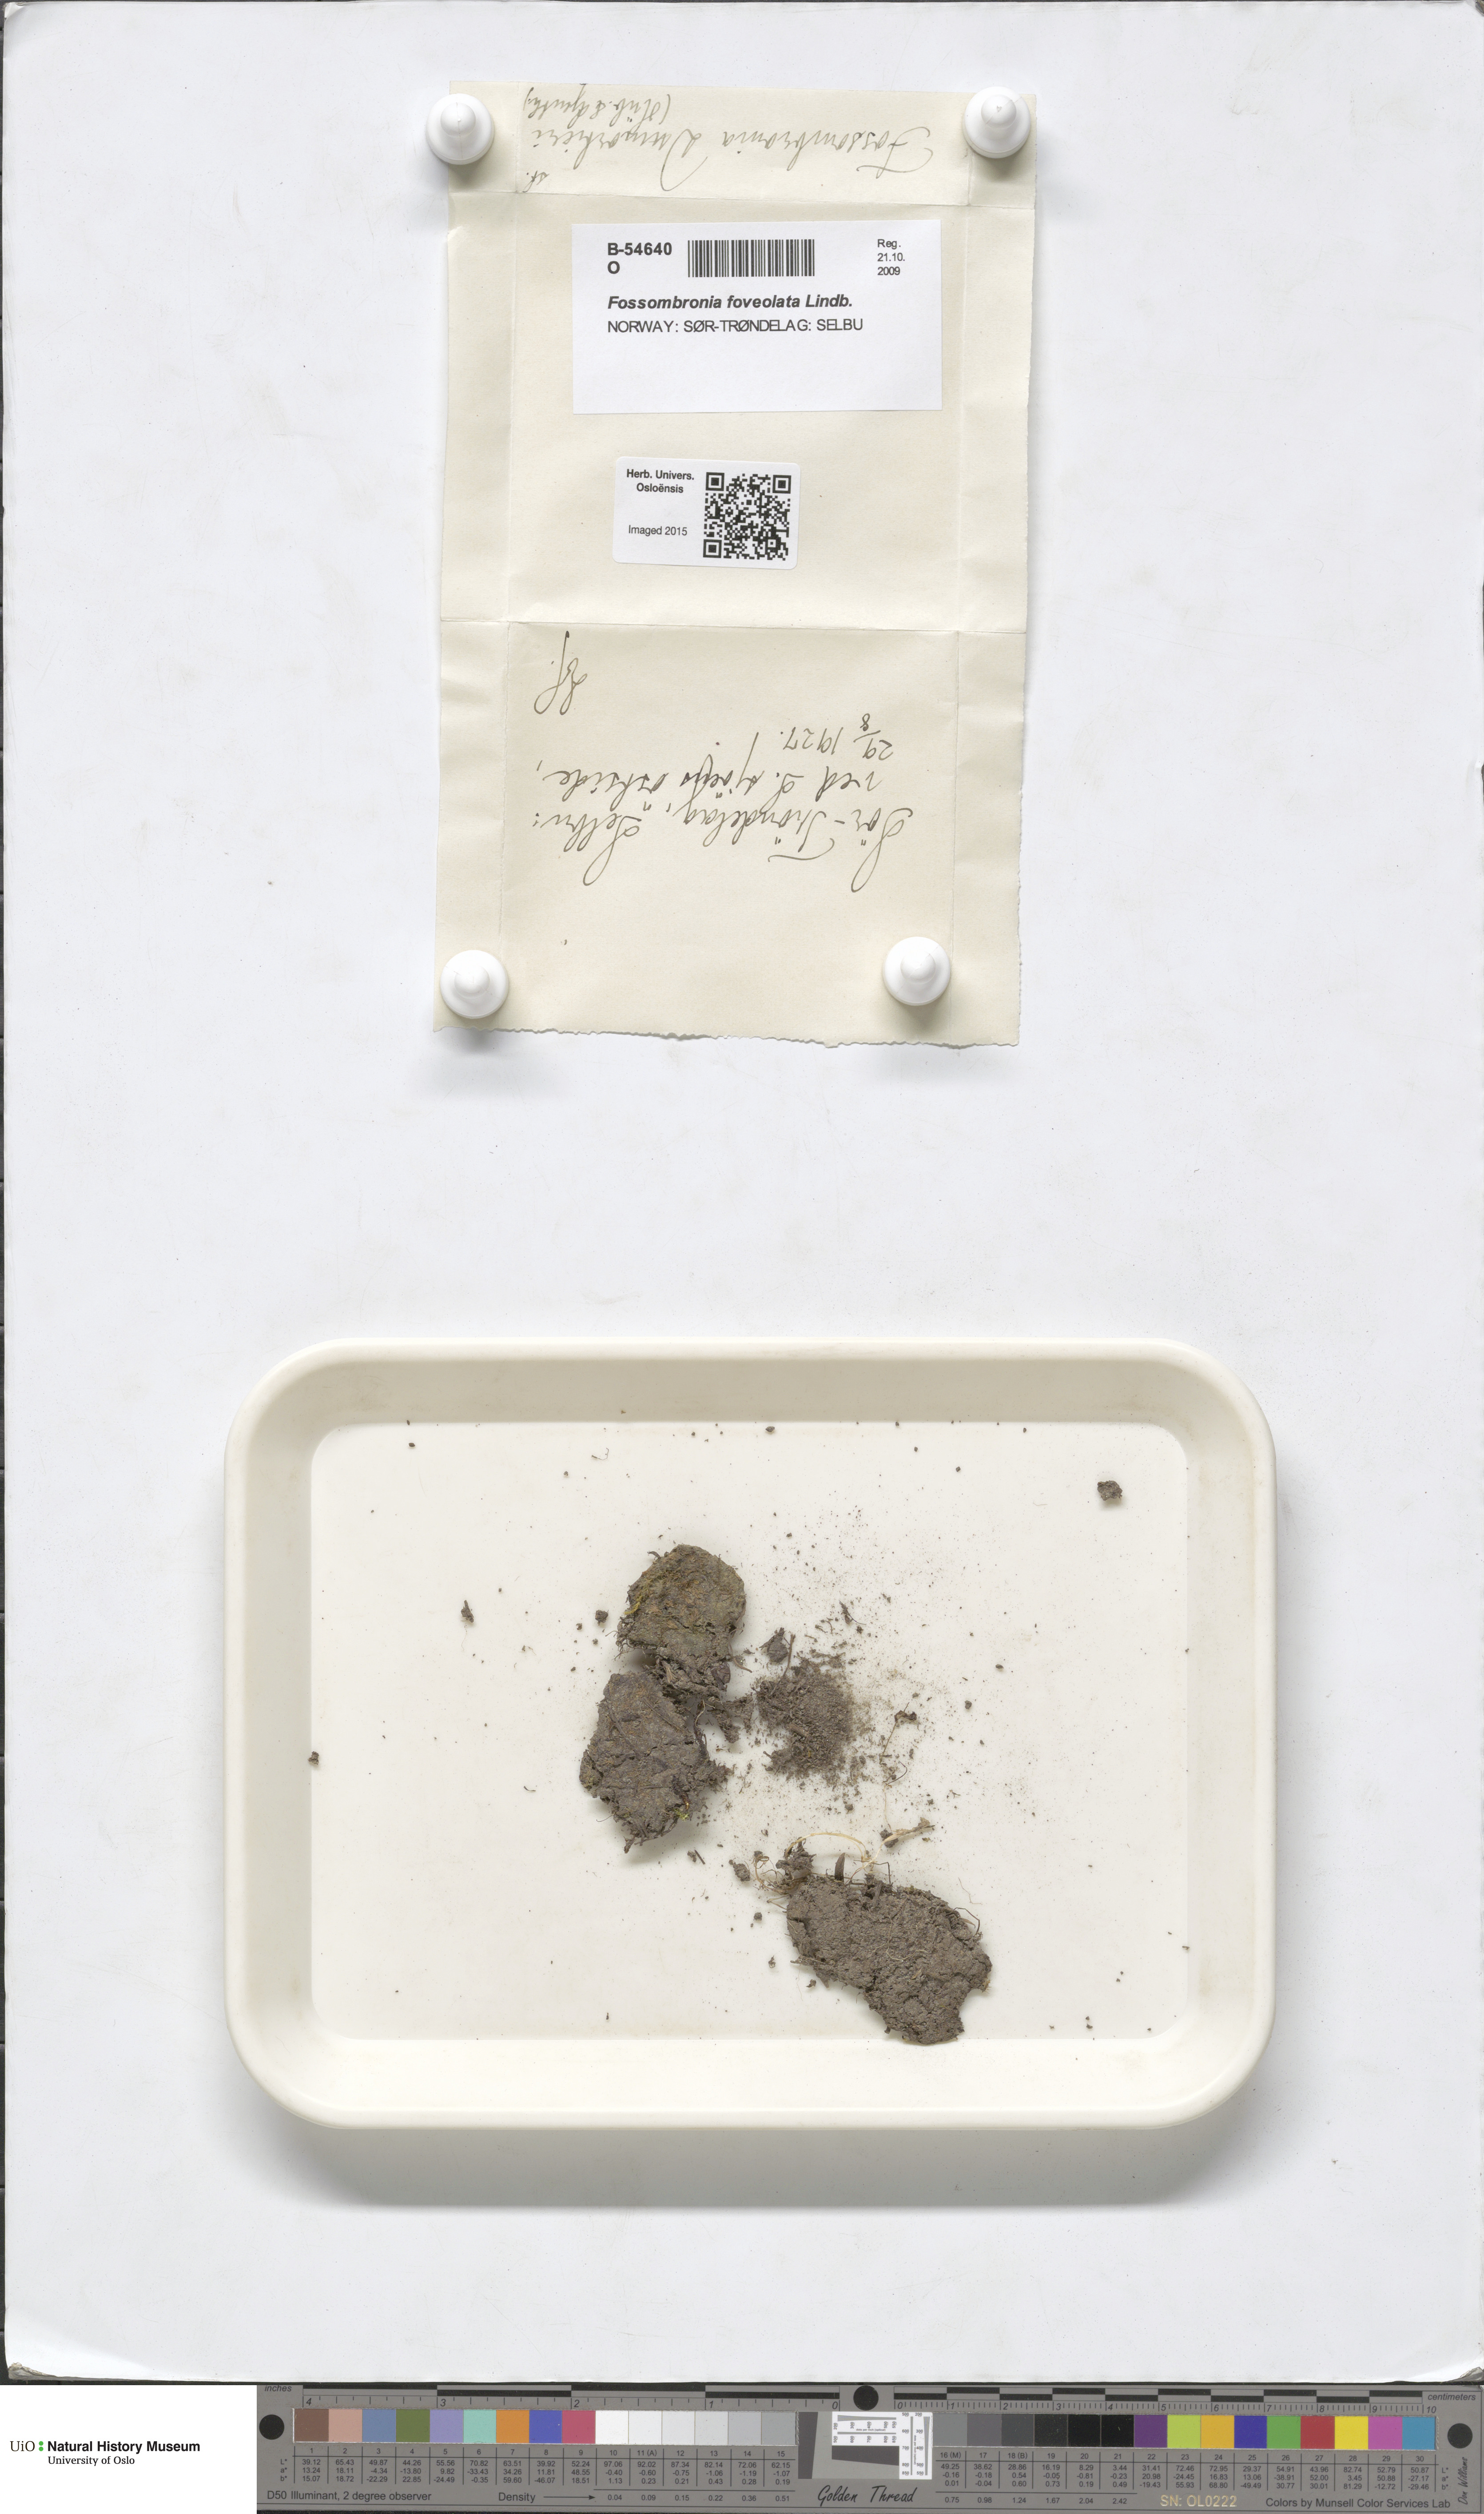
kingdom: Plantae
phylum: Marchantiophyta
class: Jungermanniopsida
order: Fossombroniales
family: Fossombroniaceae
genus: Fossombronia
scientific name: Fossombronia foveolata
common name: Pitted frillwort
